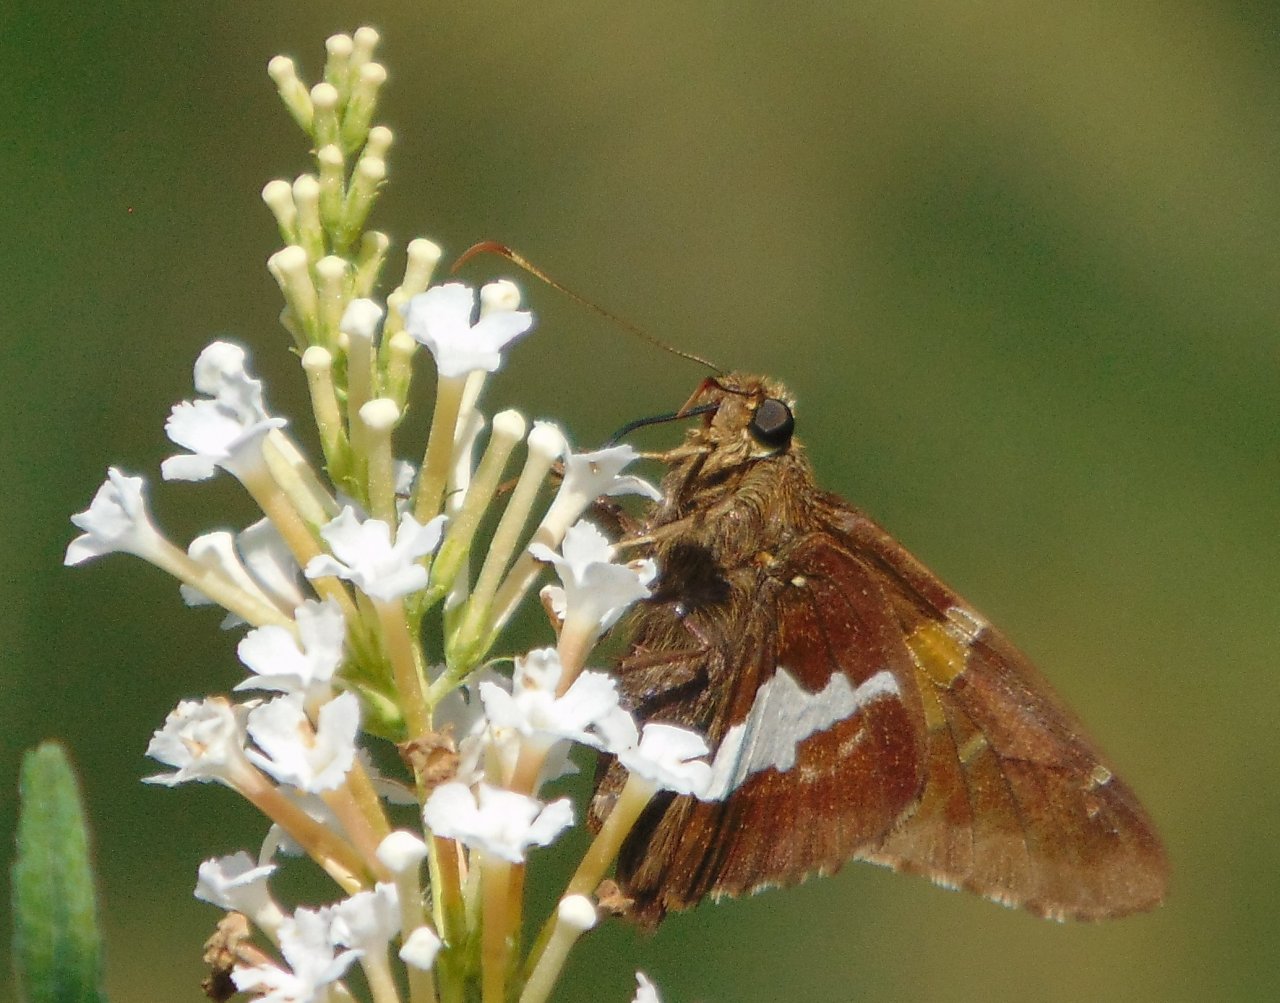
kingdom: Animalia
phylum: Arthropoda
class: Insecta
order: Lepidoptera
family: Hesperiidae
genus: Epargyreus
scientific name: Epargyreus clarus
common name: Silver-spotted Skipper
